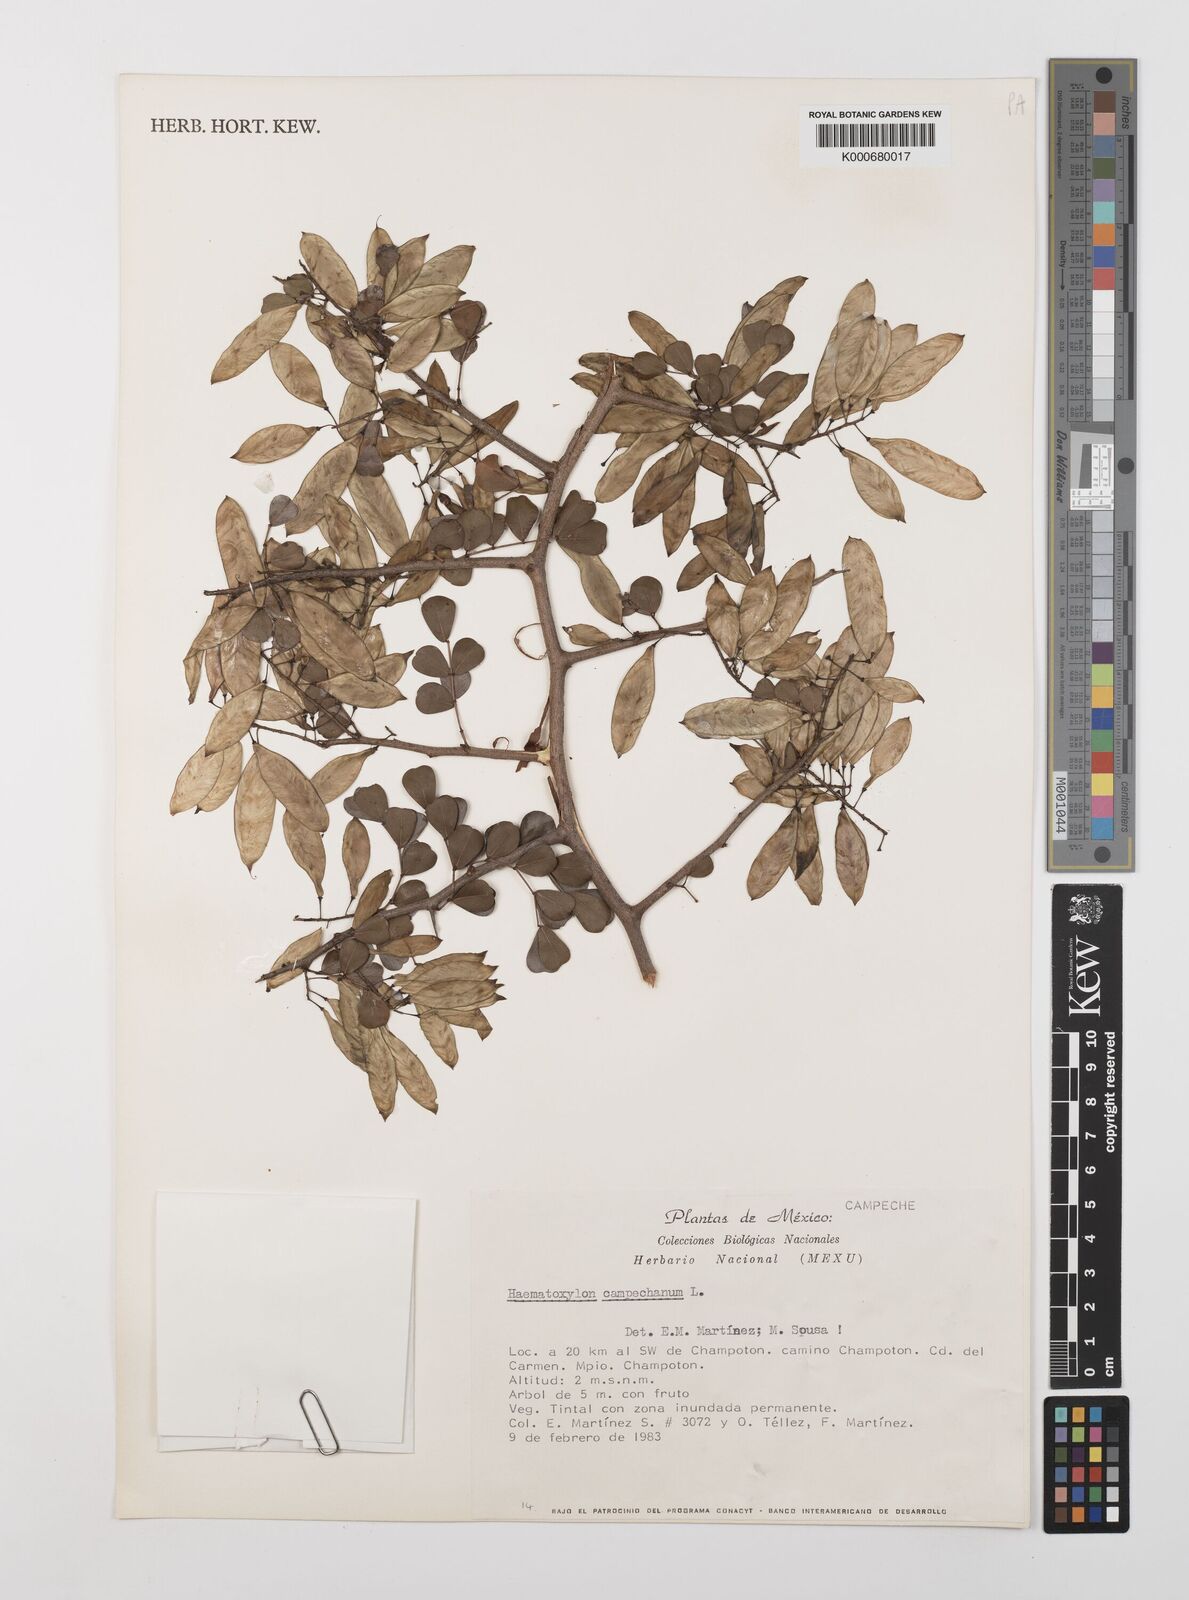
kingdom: Plantae
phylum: Tracheophyta
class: Magnoliopsida
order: Fabales
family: Fabaceae
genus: Haematoxylum
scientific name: Haematoxylum
